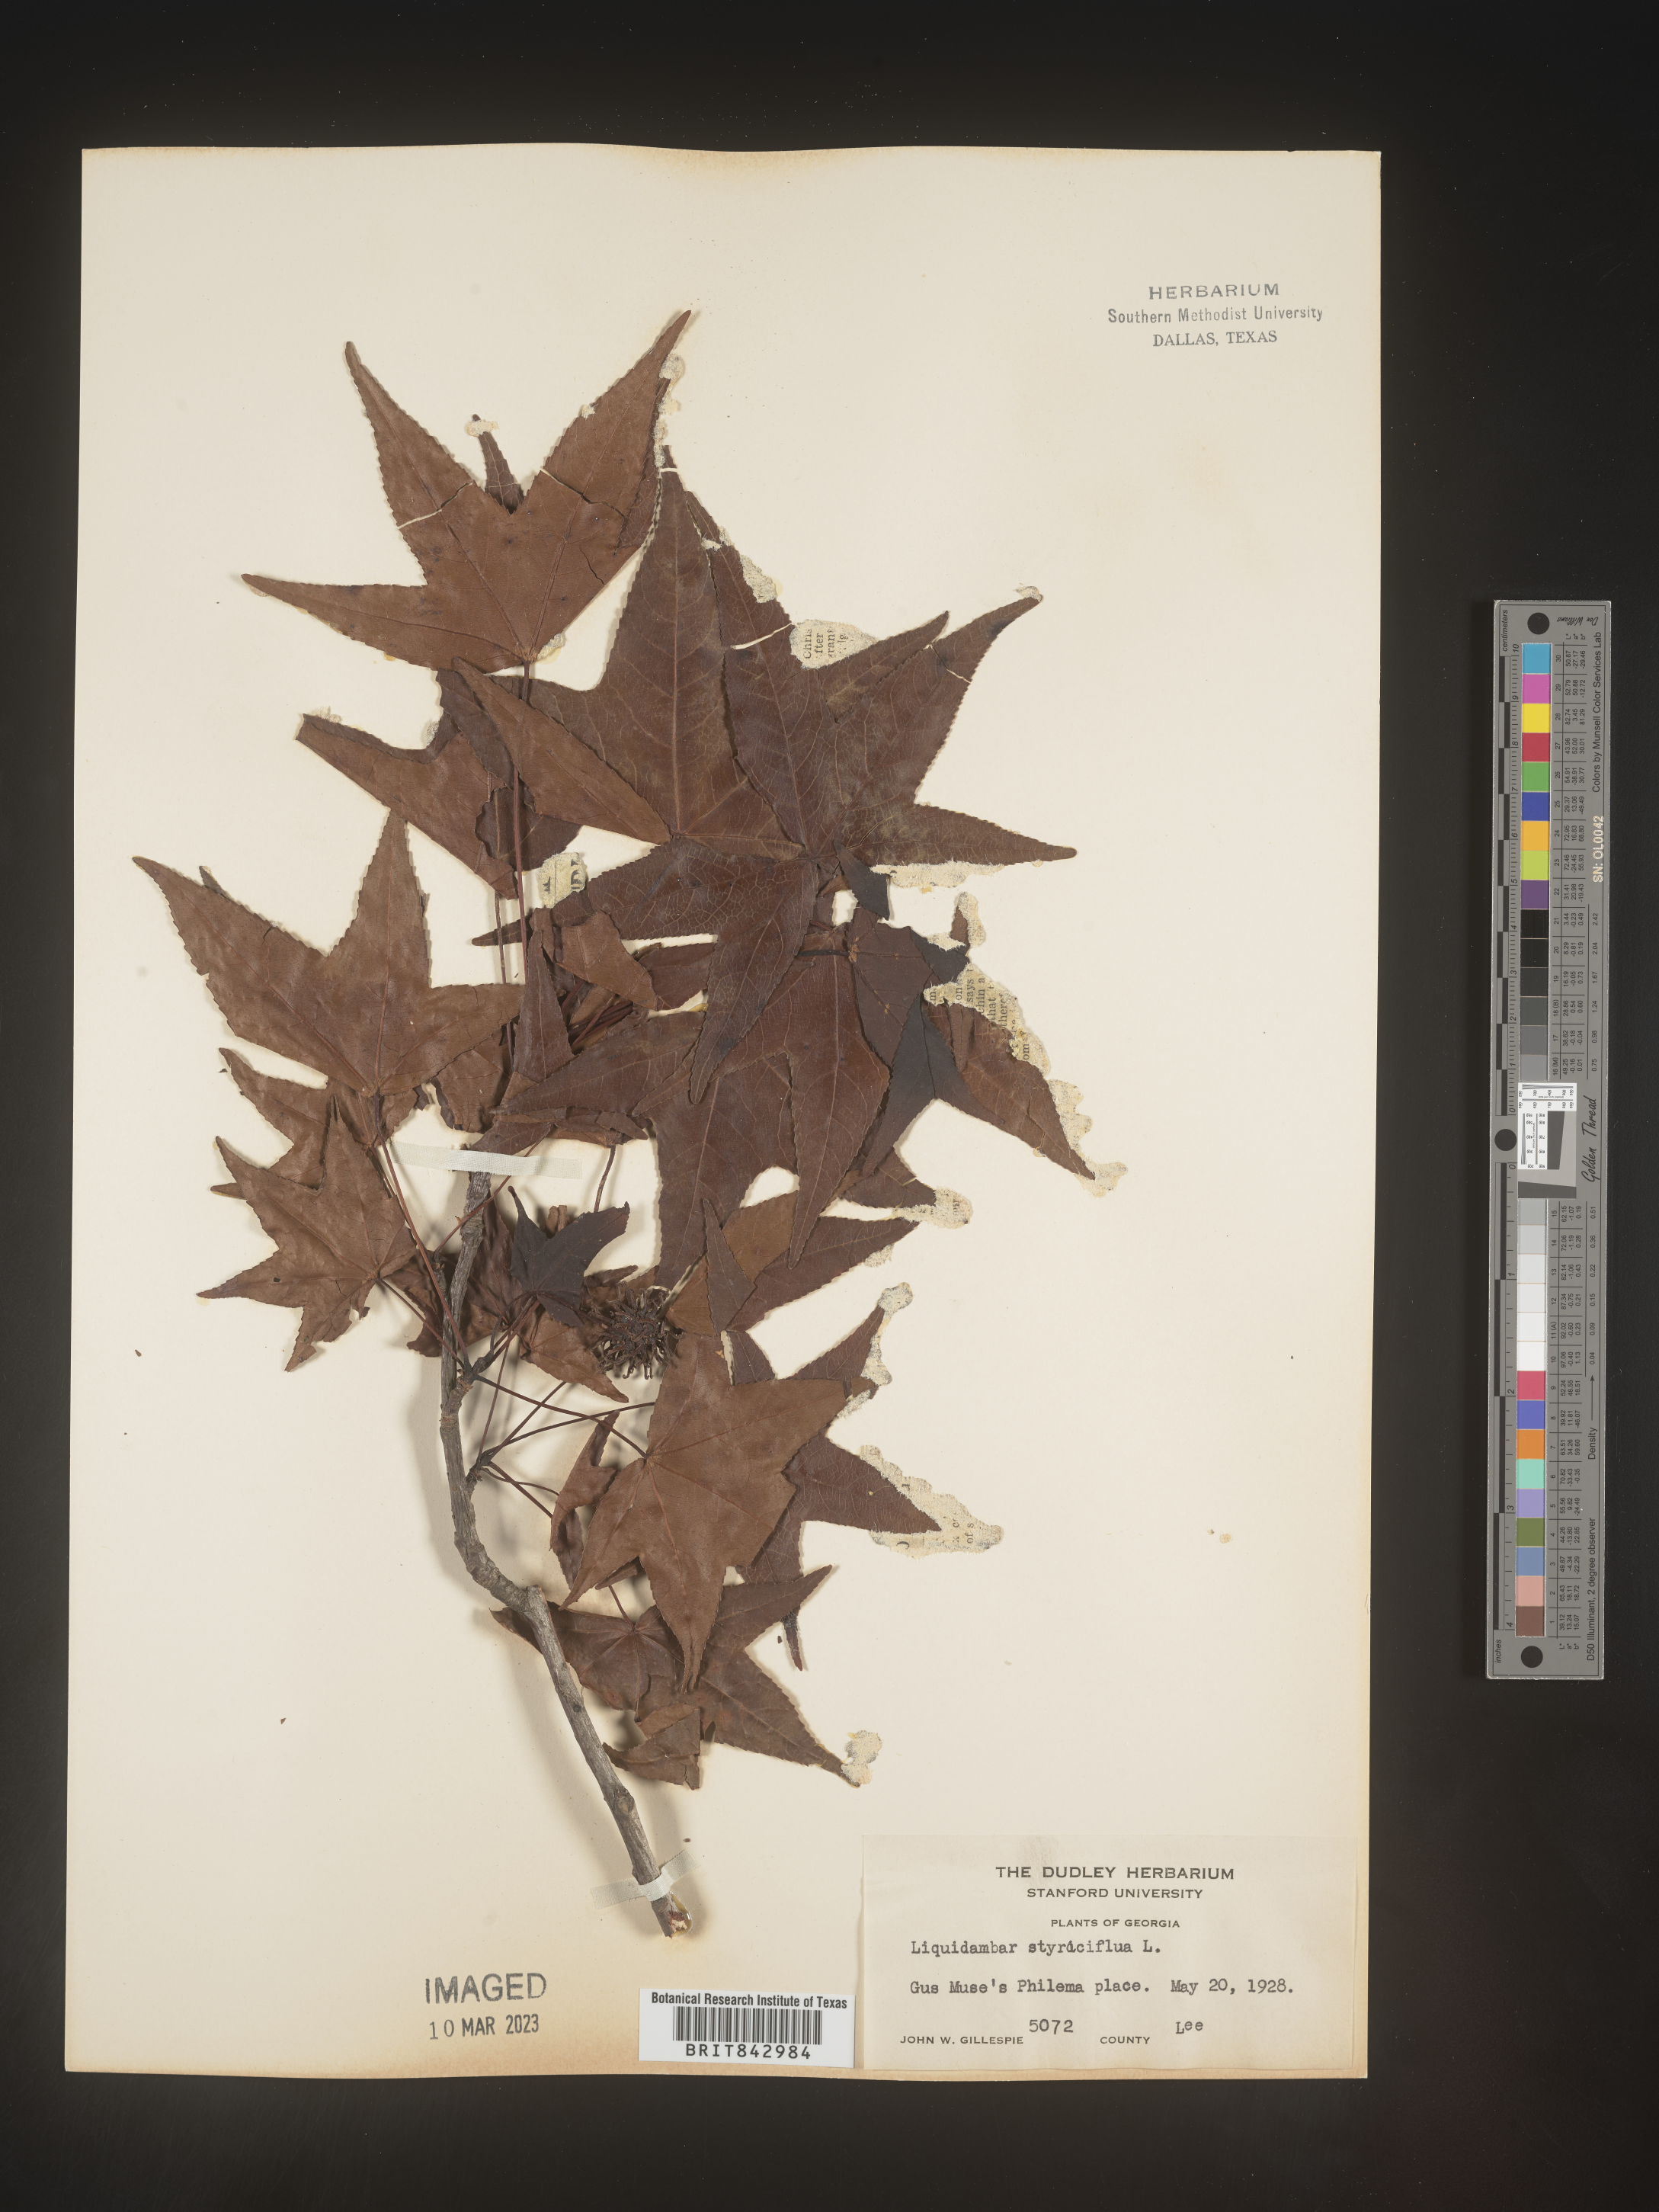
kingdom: Plantae
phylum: Tracheophyta
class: Magnoliopsida
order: Saxifragales
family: Altingiaceae
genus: Liquidambar
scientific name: Liquidambar
